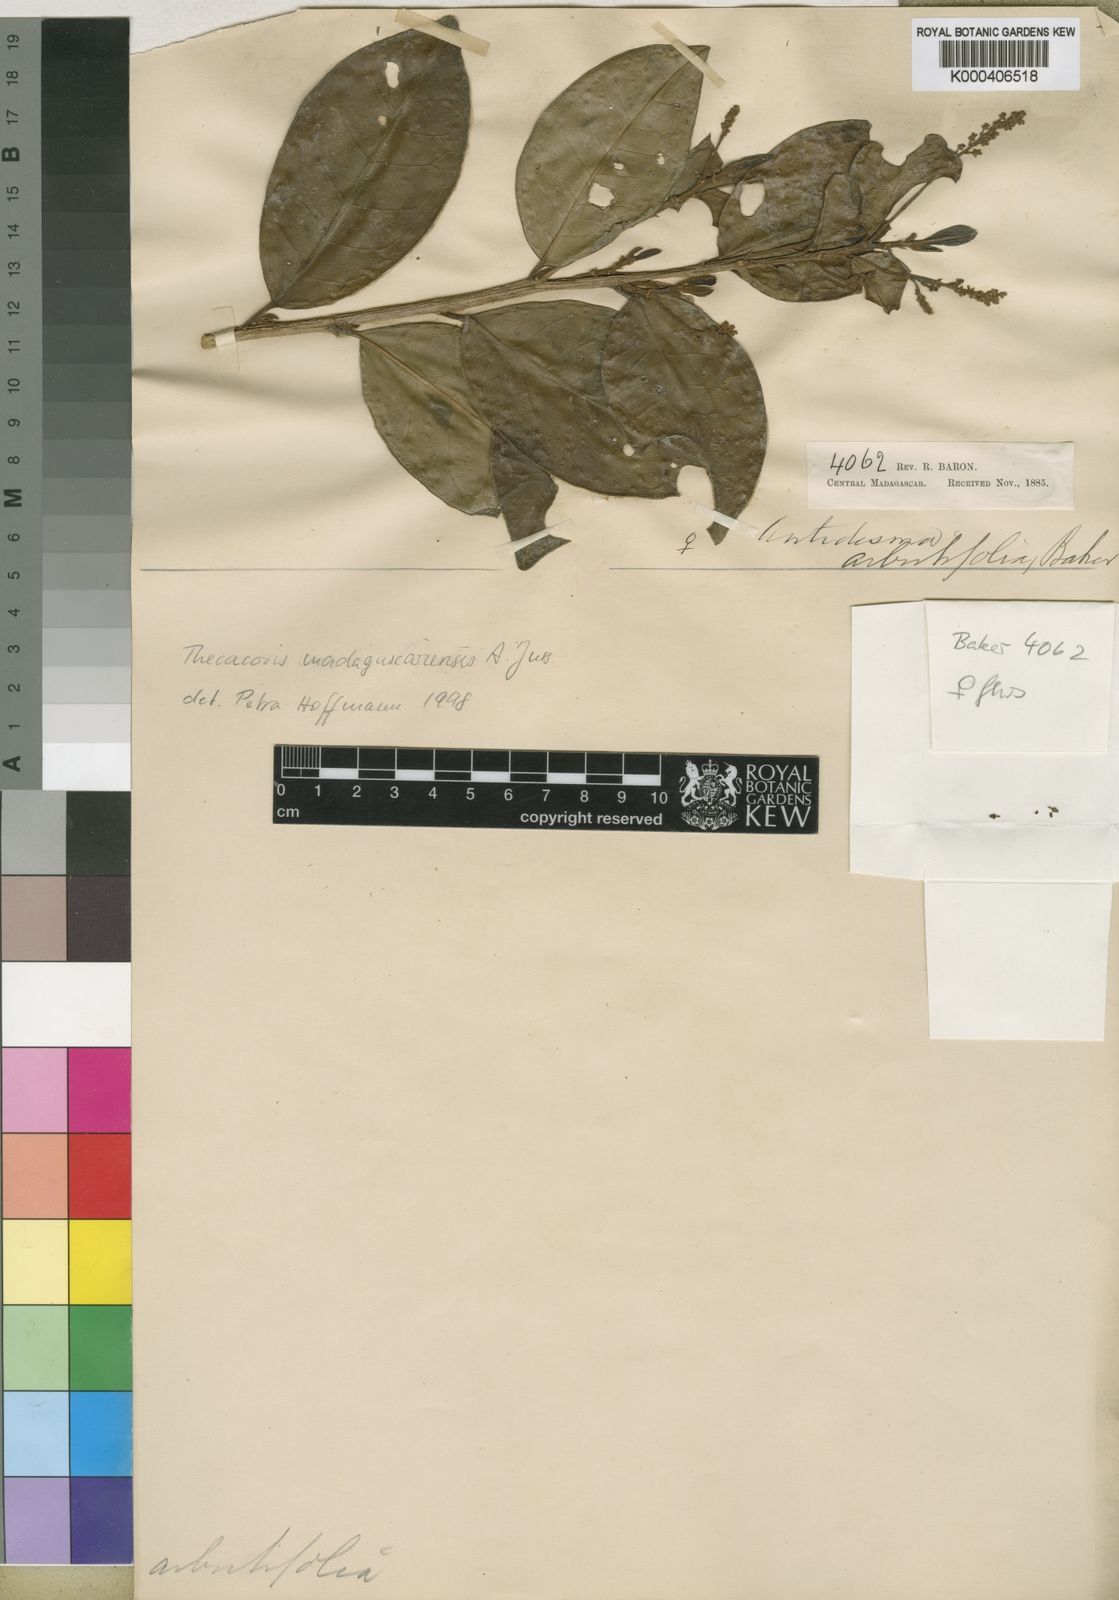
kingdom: Plantae
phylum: Tracheophyta
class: Magnoliopsida
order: Malpighiales
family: Phyllanthaceae
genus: Thecacoris
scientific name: Thecacoris madagascariensis
